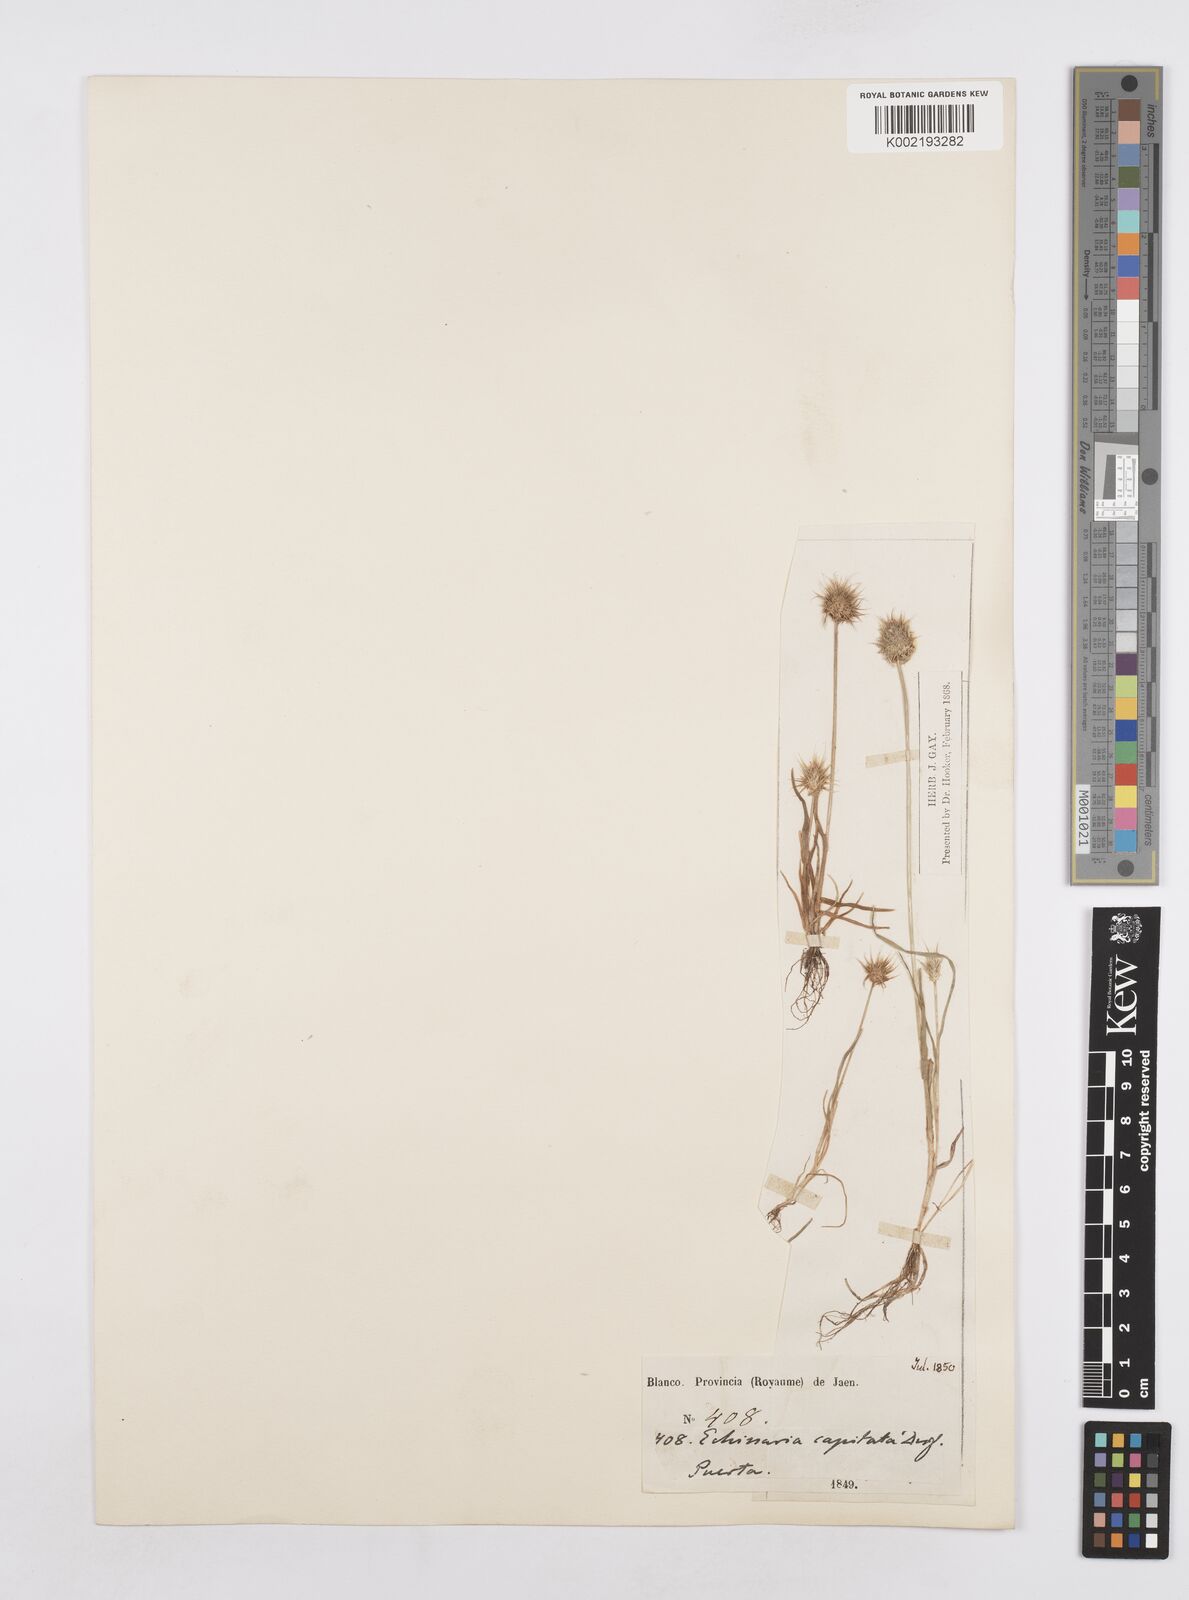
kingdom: Plantae
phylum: Tracheophyta
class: Liliopsida
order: Poales
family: Poaceae
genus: Echinaria
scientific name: Echinaria capitata
